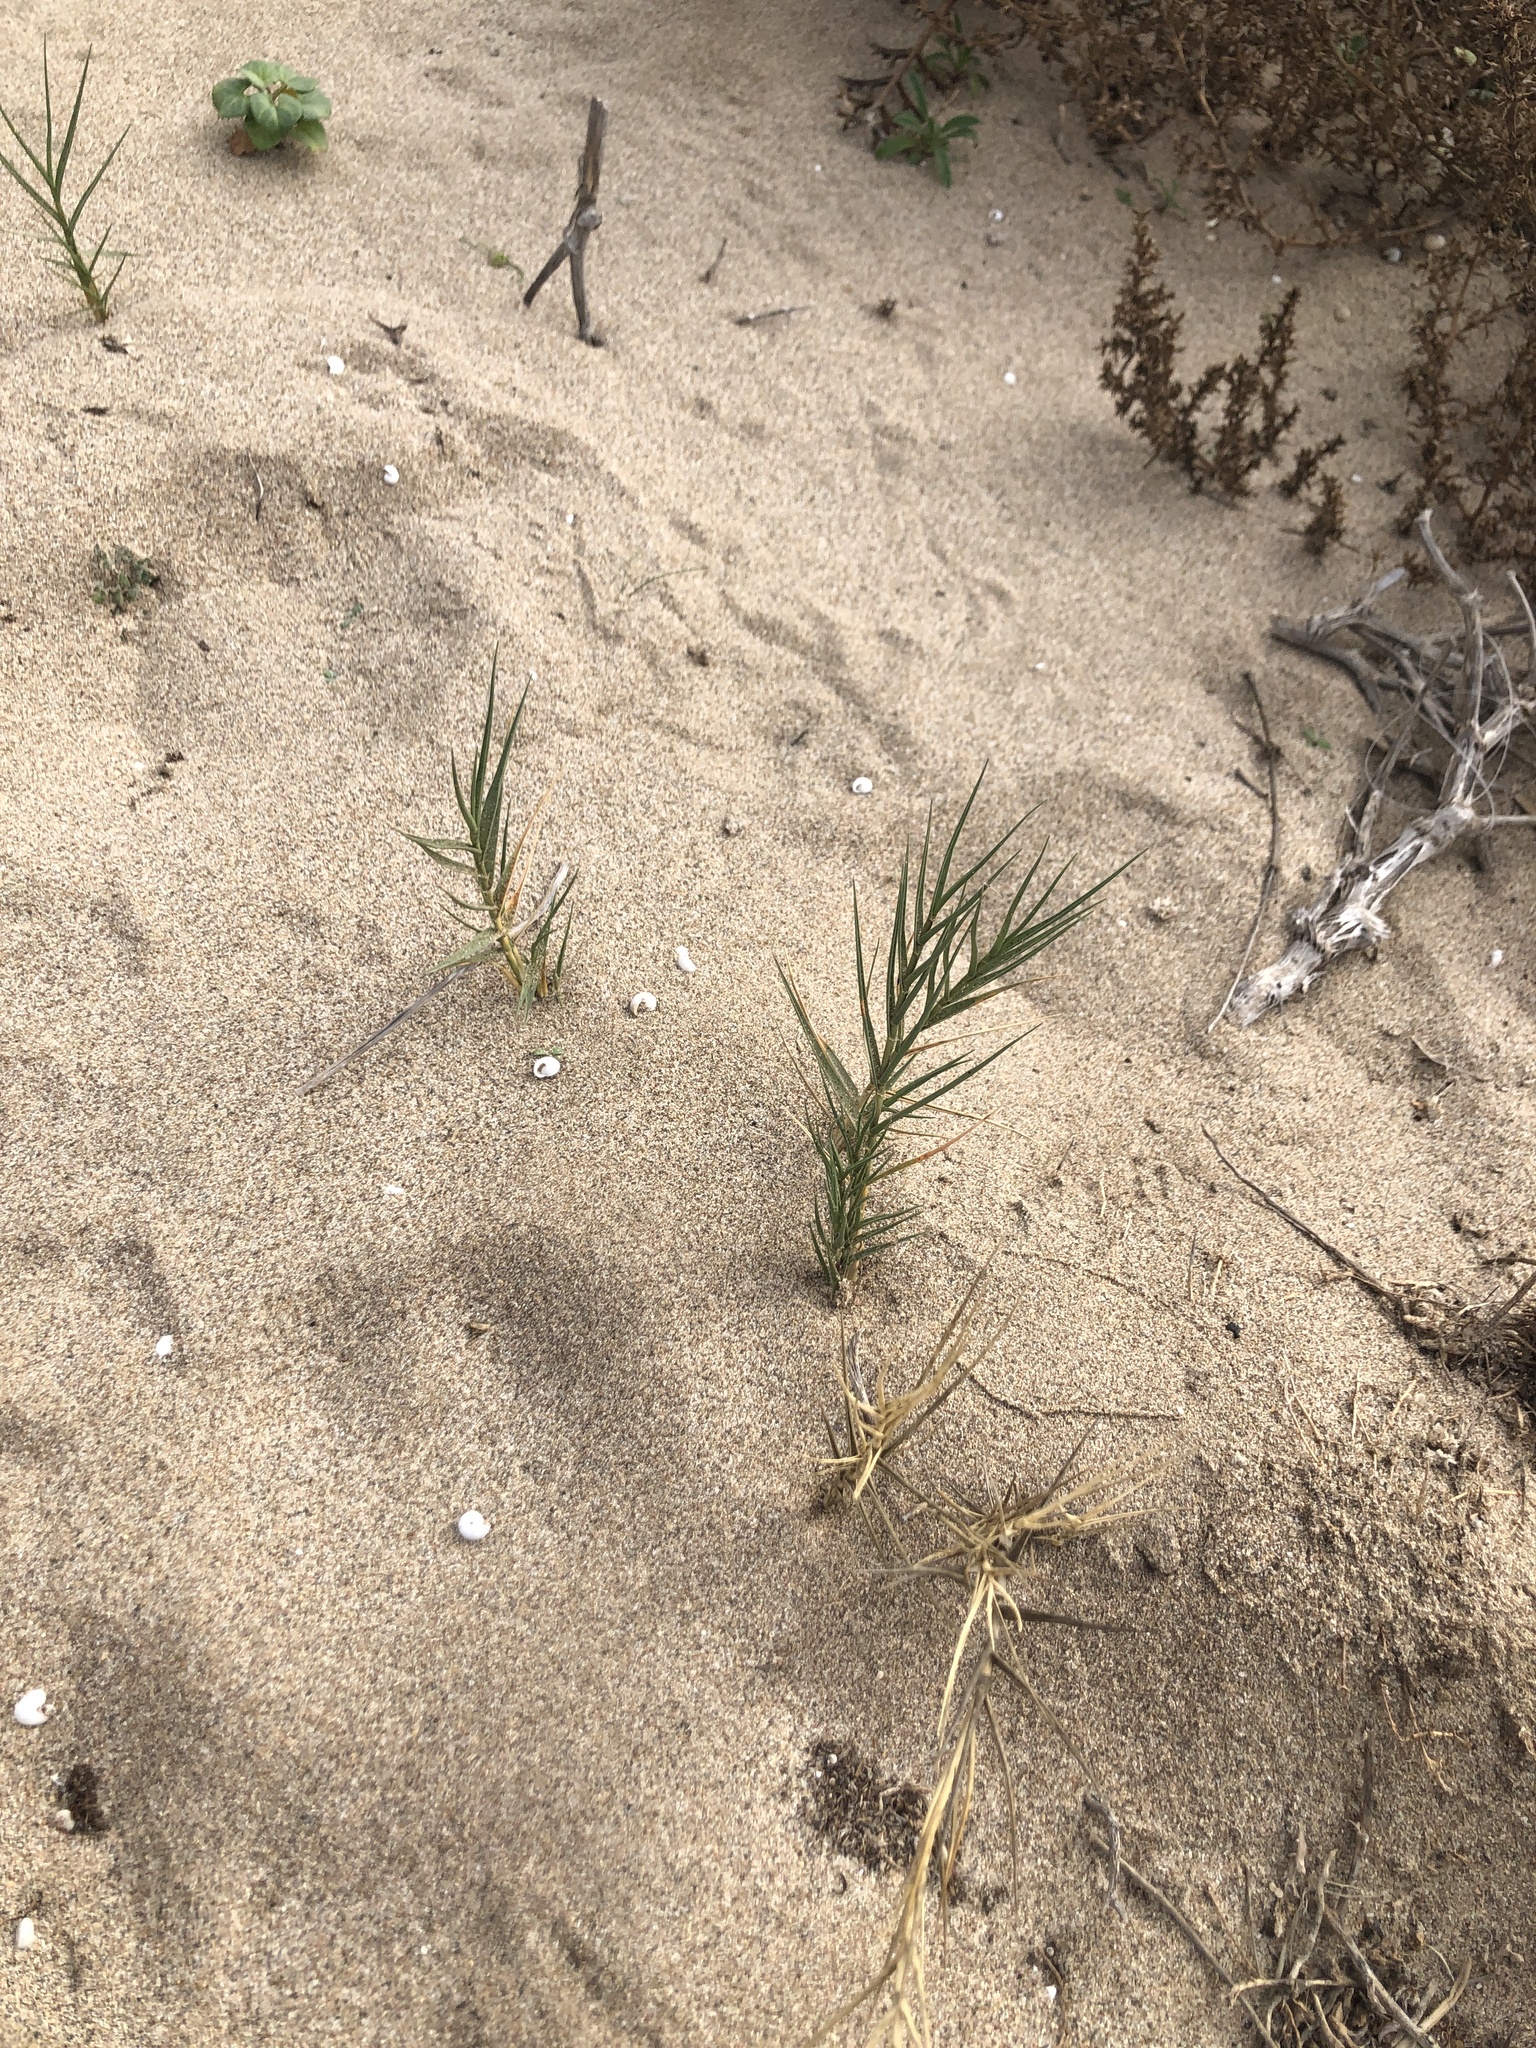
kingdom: Plantae
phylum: Tracheophyta
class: Liliopsida
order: Poales
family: Poaceae
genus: Sporobolus
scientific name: Sporobolus pungens
